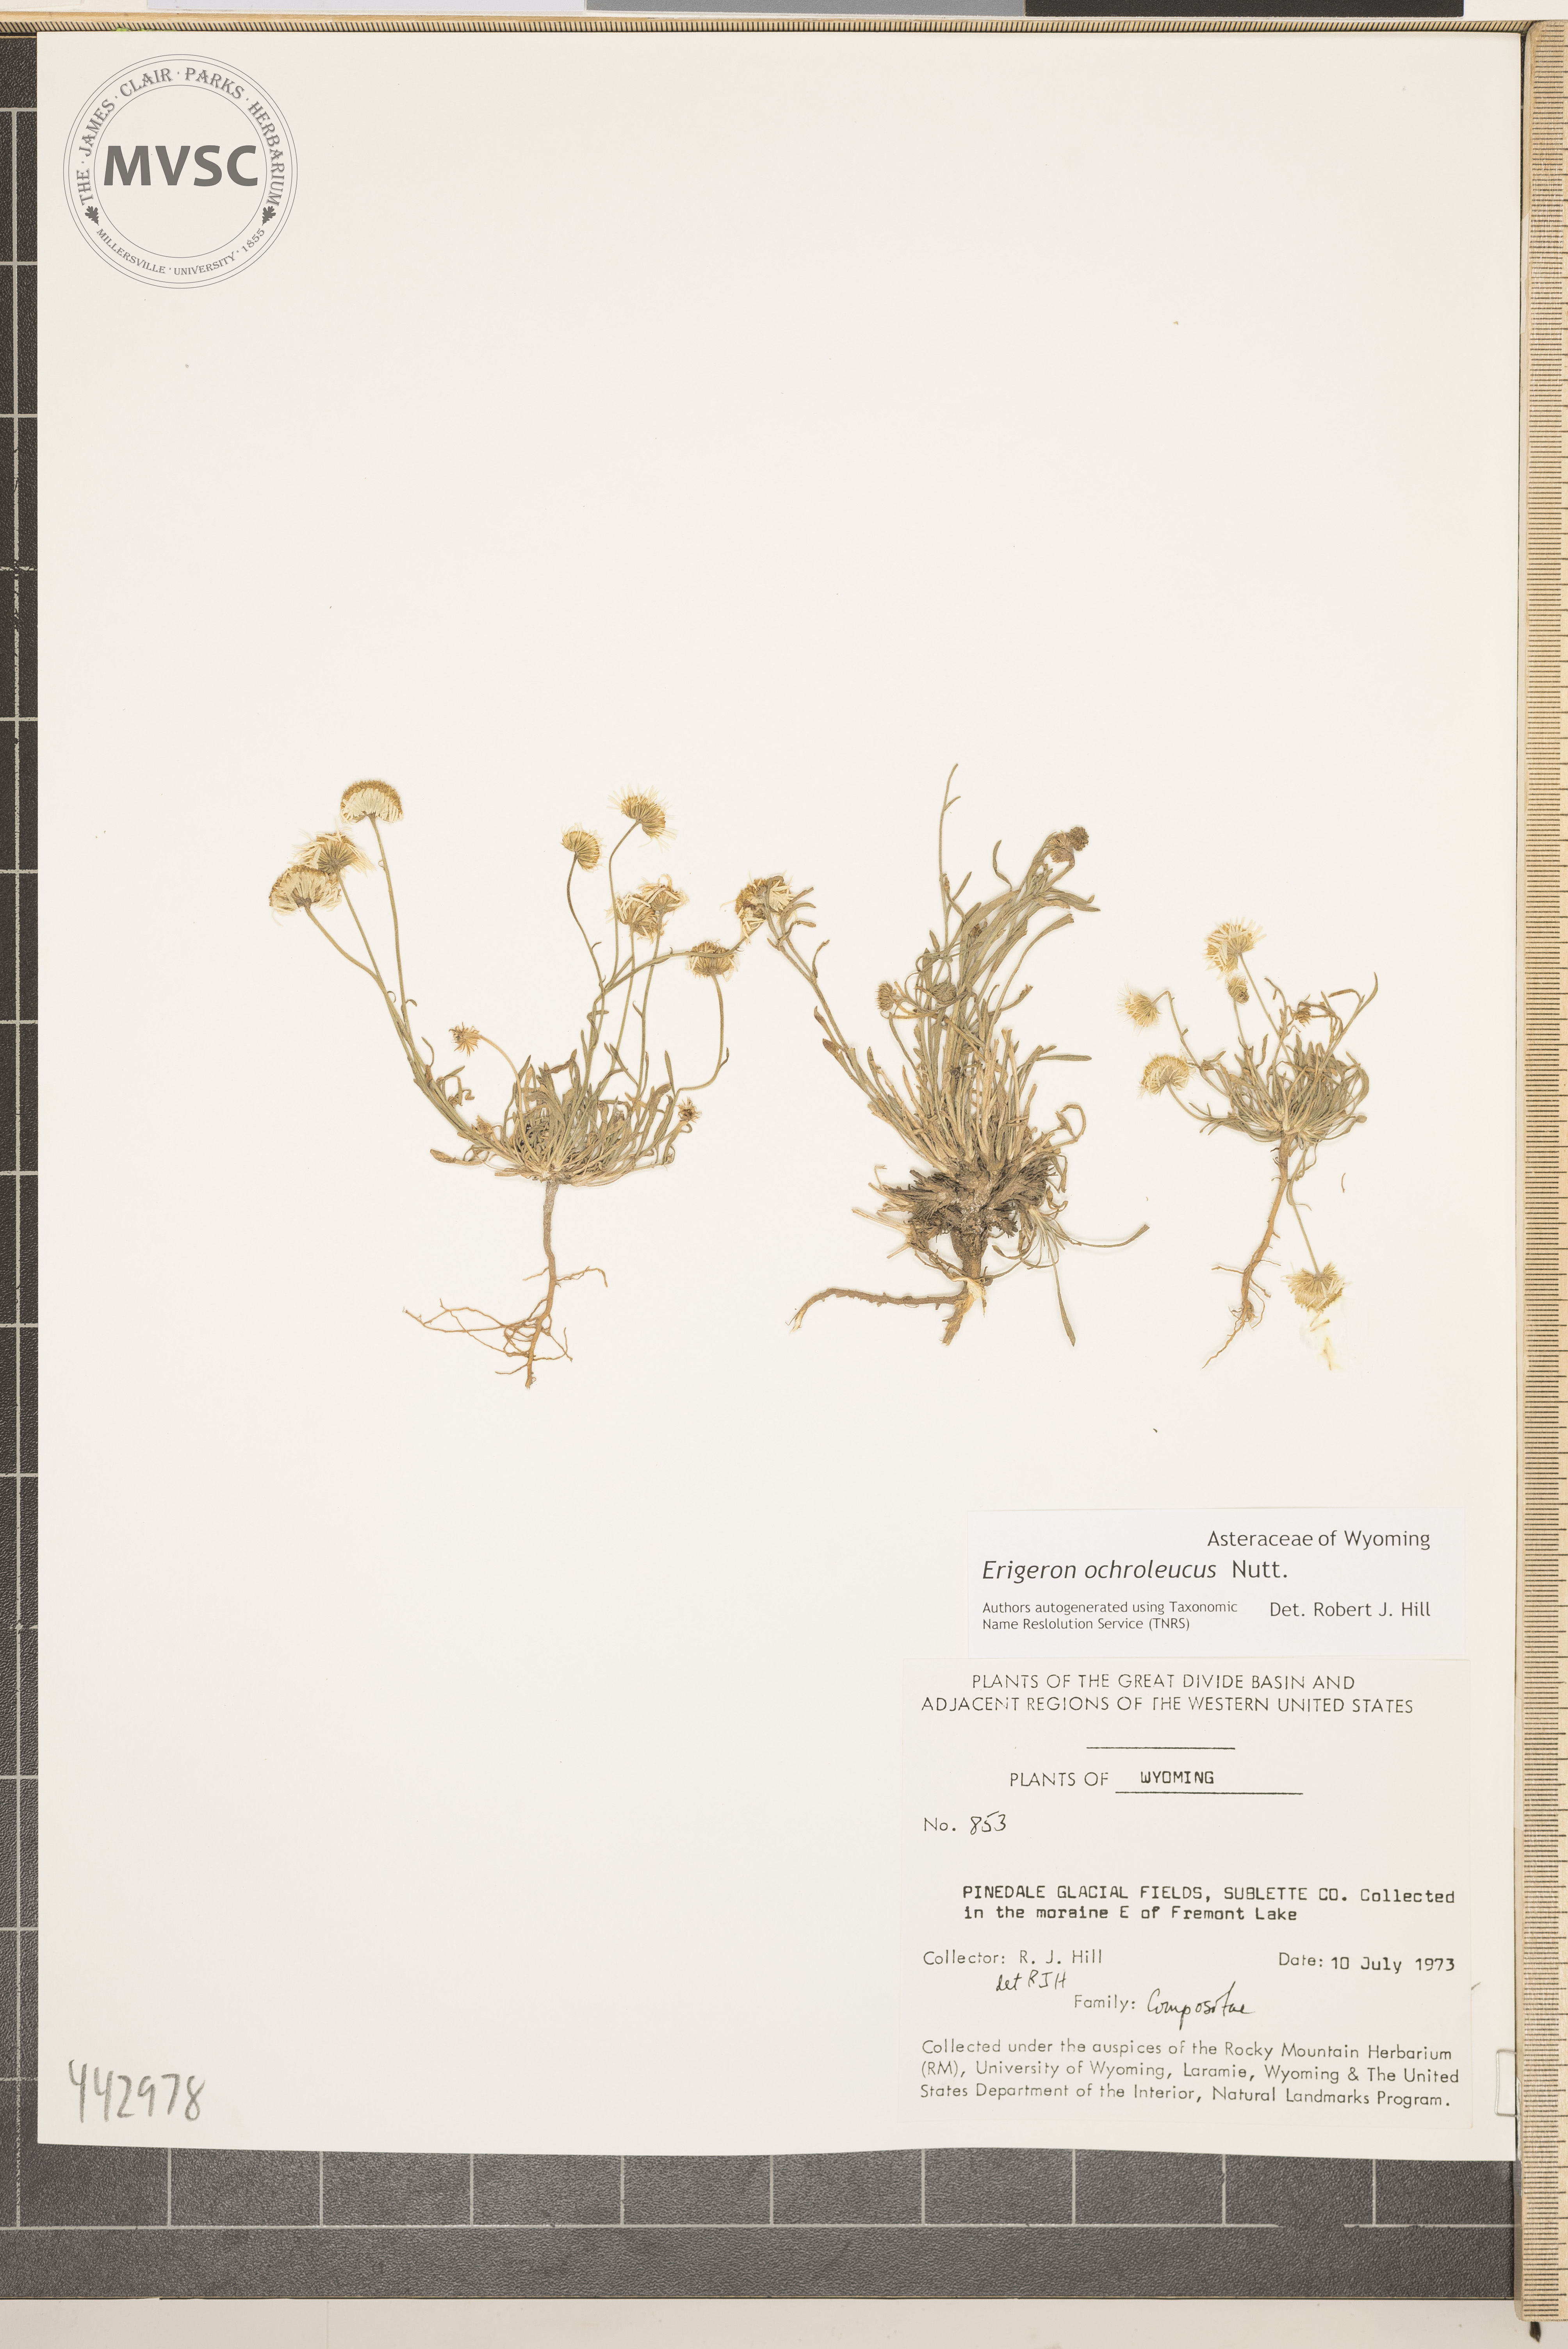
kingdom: Plantae
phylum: Tracheophyta
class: Magnoliopsida
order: Asterales
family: Asteraceae
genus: Erigeron
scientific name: Erigeron ochroleucus
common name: Buff fleabane
